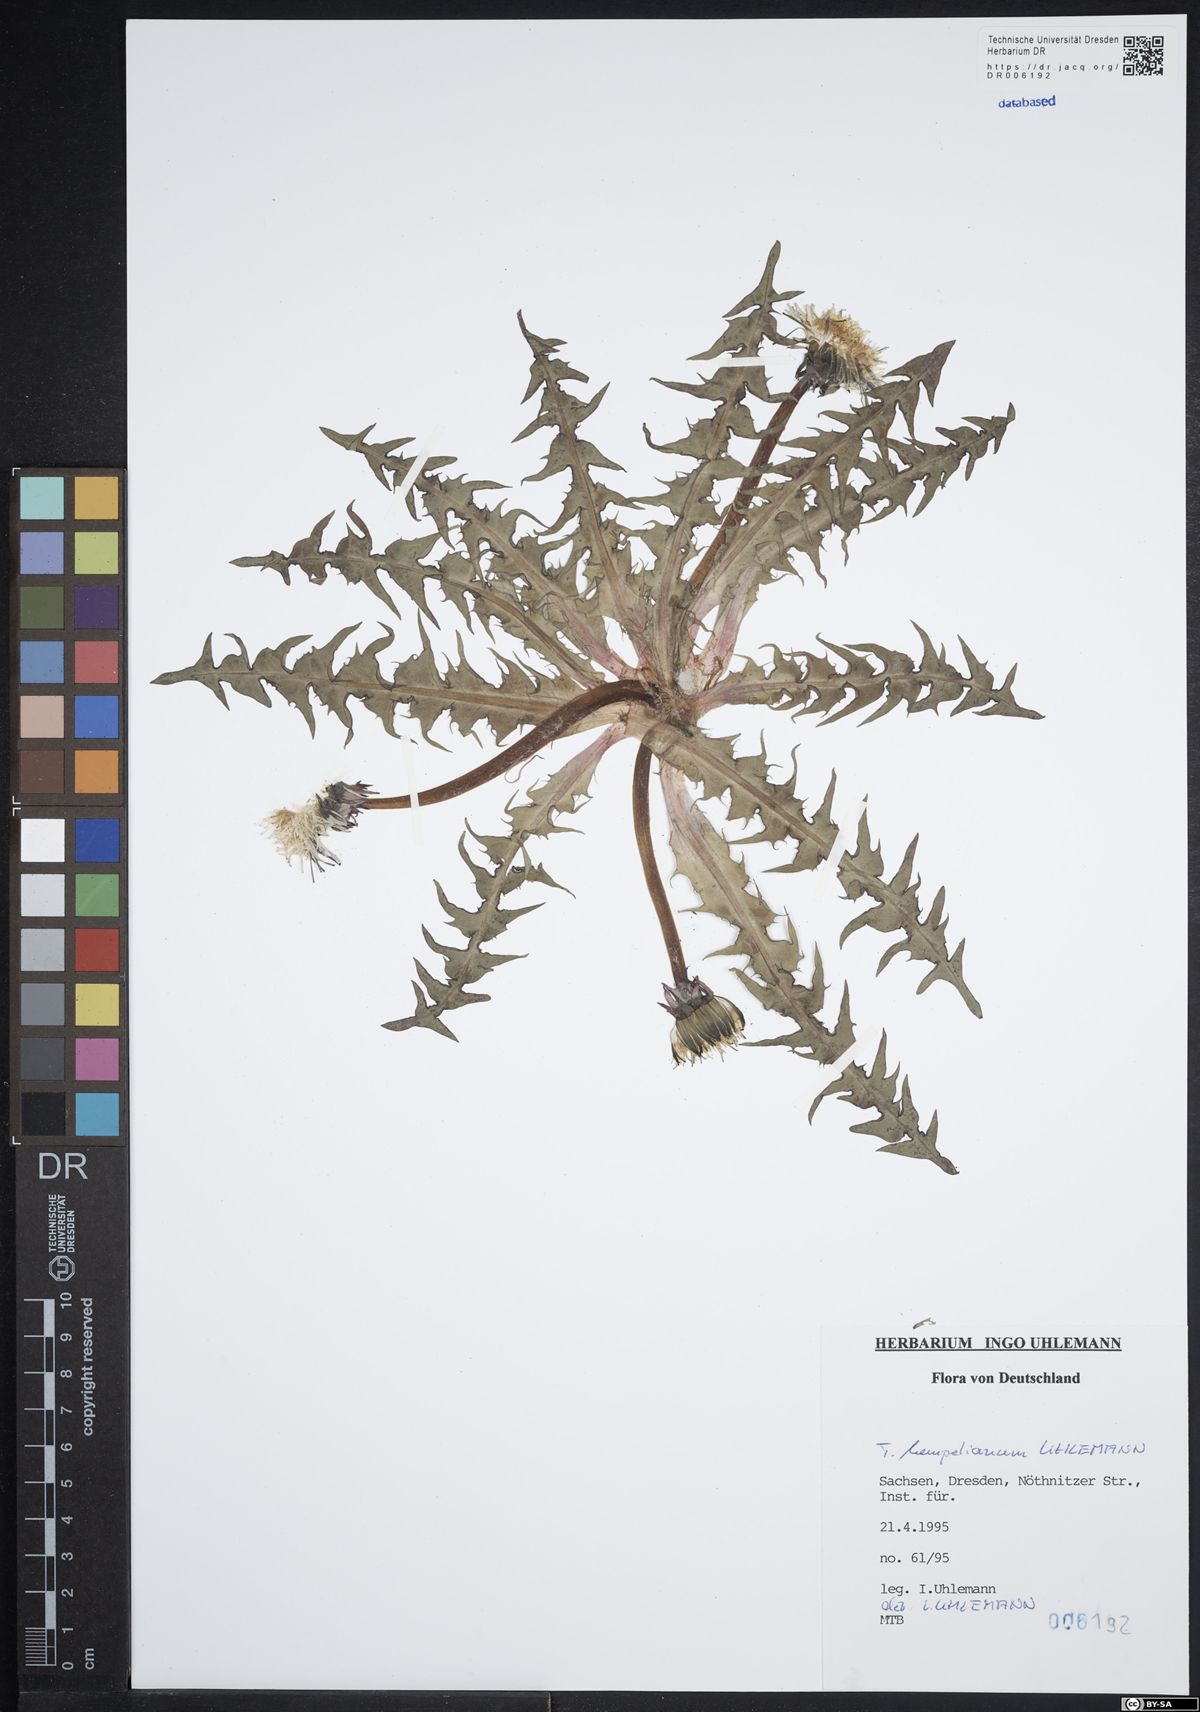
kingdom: Plantae
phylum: Tracheophyta
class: Magnoliopsida
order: Asterales
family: Asteraceae
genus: Taraxacum
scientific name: Taraxacum hempelianum
